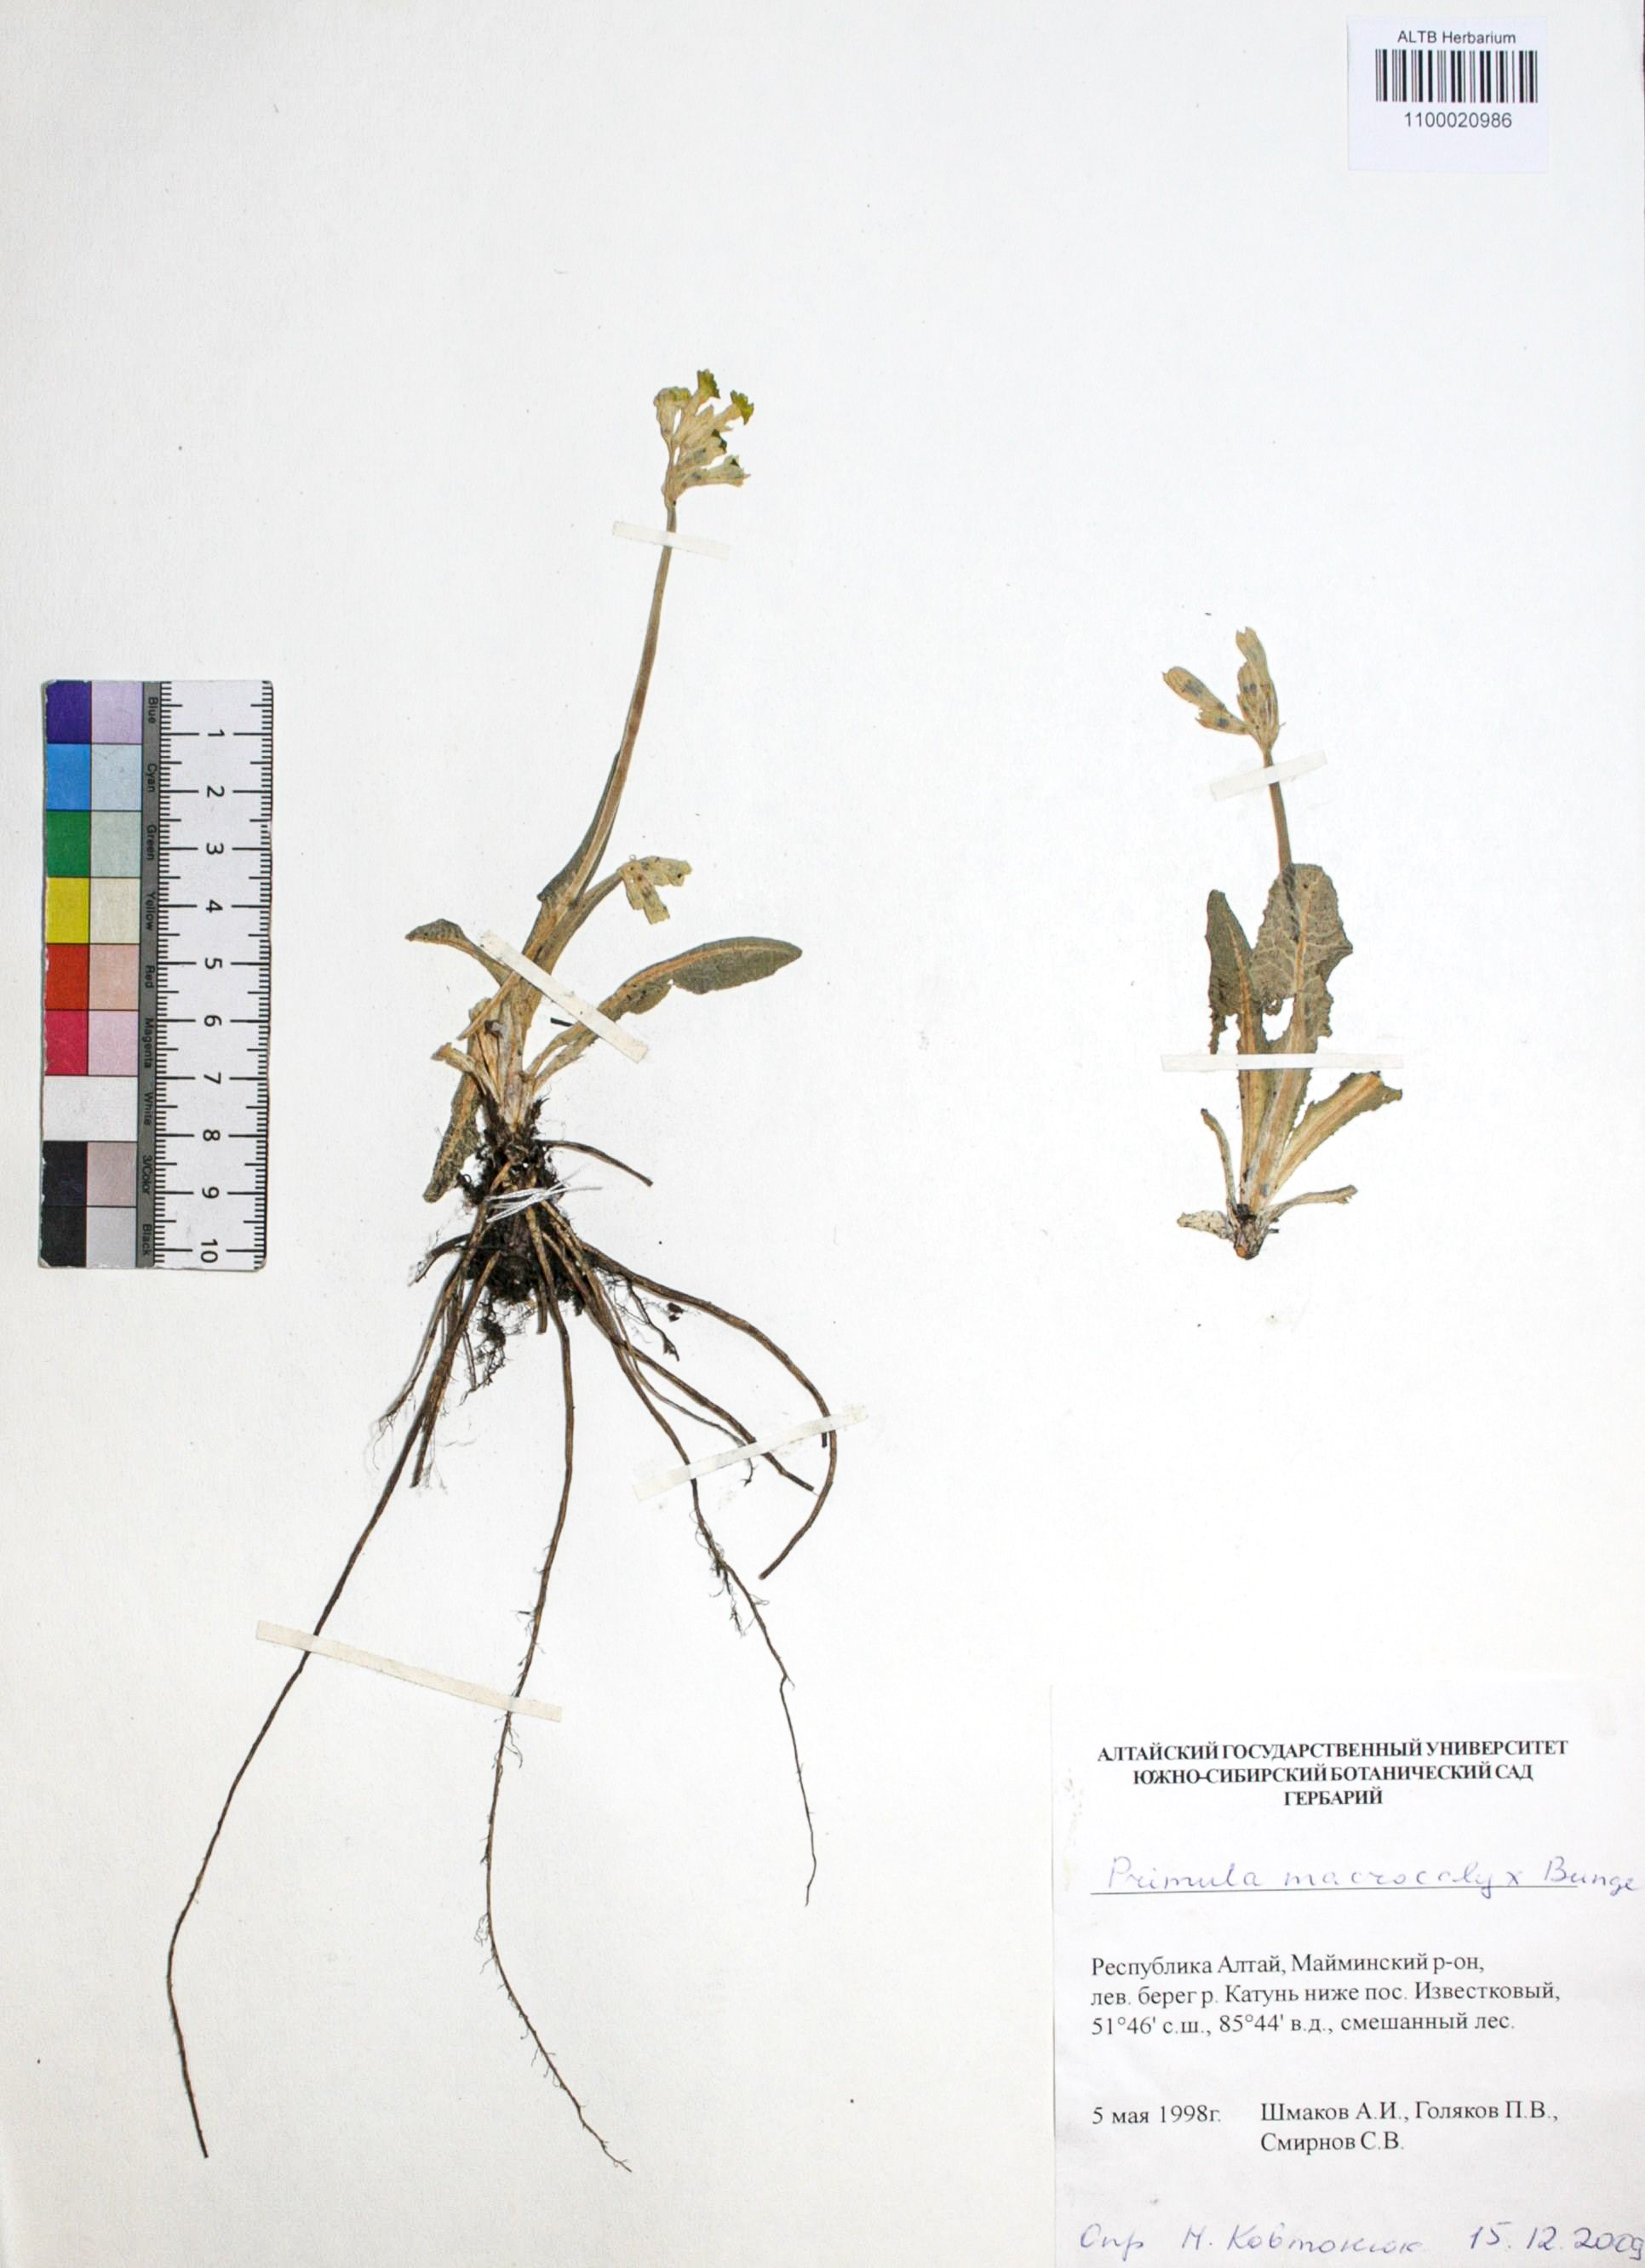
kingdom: Plantae
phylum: Tracheophyta
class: Magnoliopsida
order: Ericales
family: Primulaceae
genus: Primula
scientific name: Primula veris
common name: Cowslip
